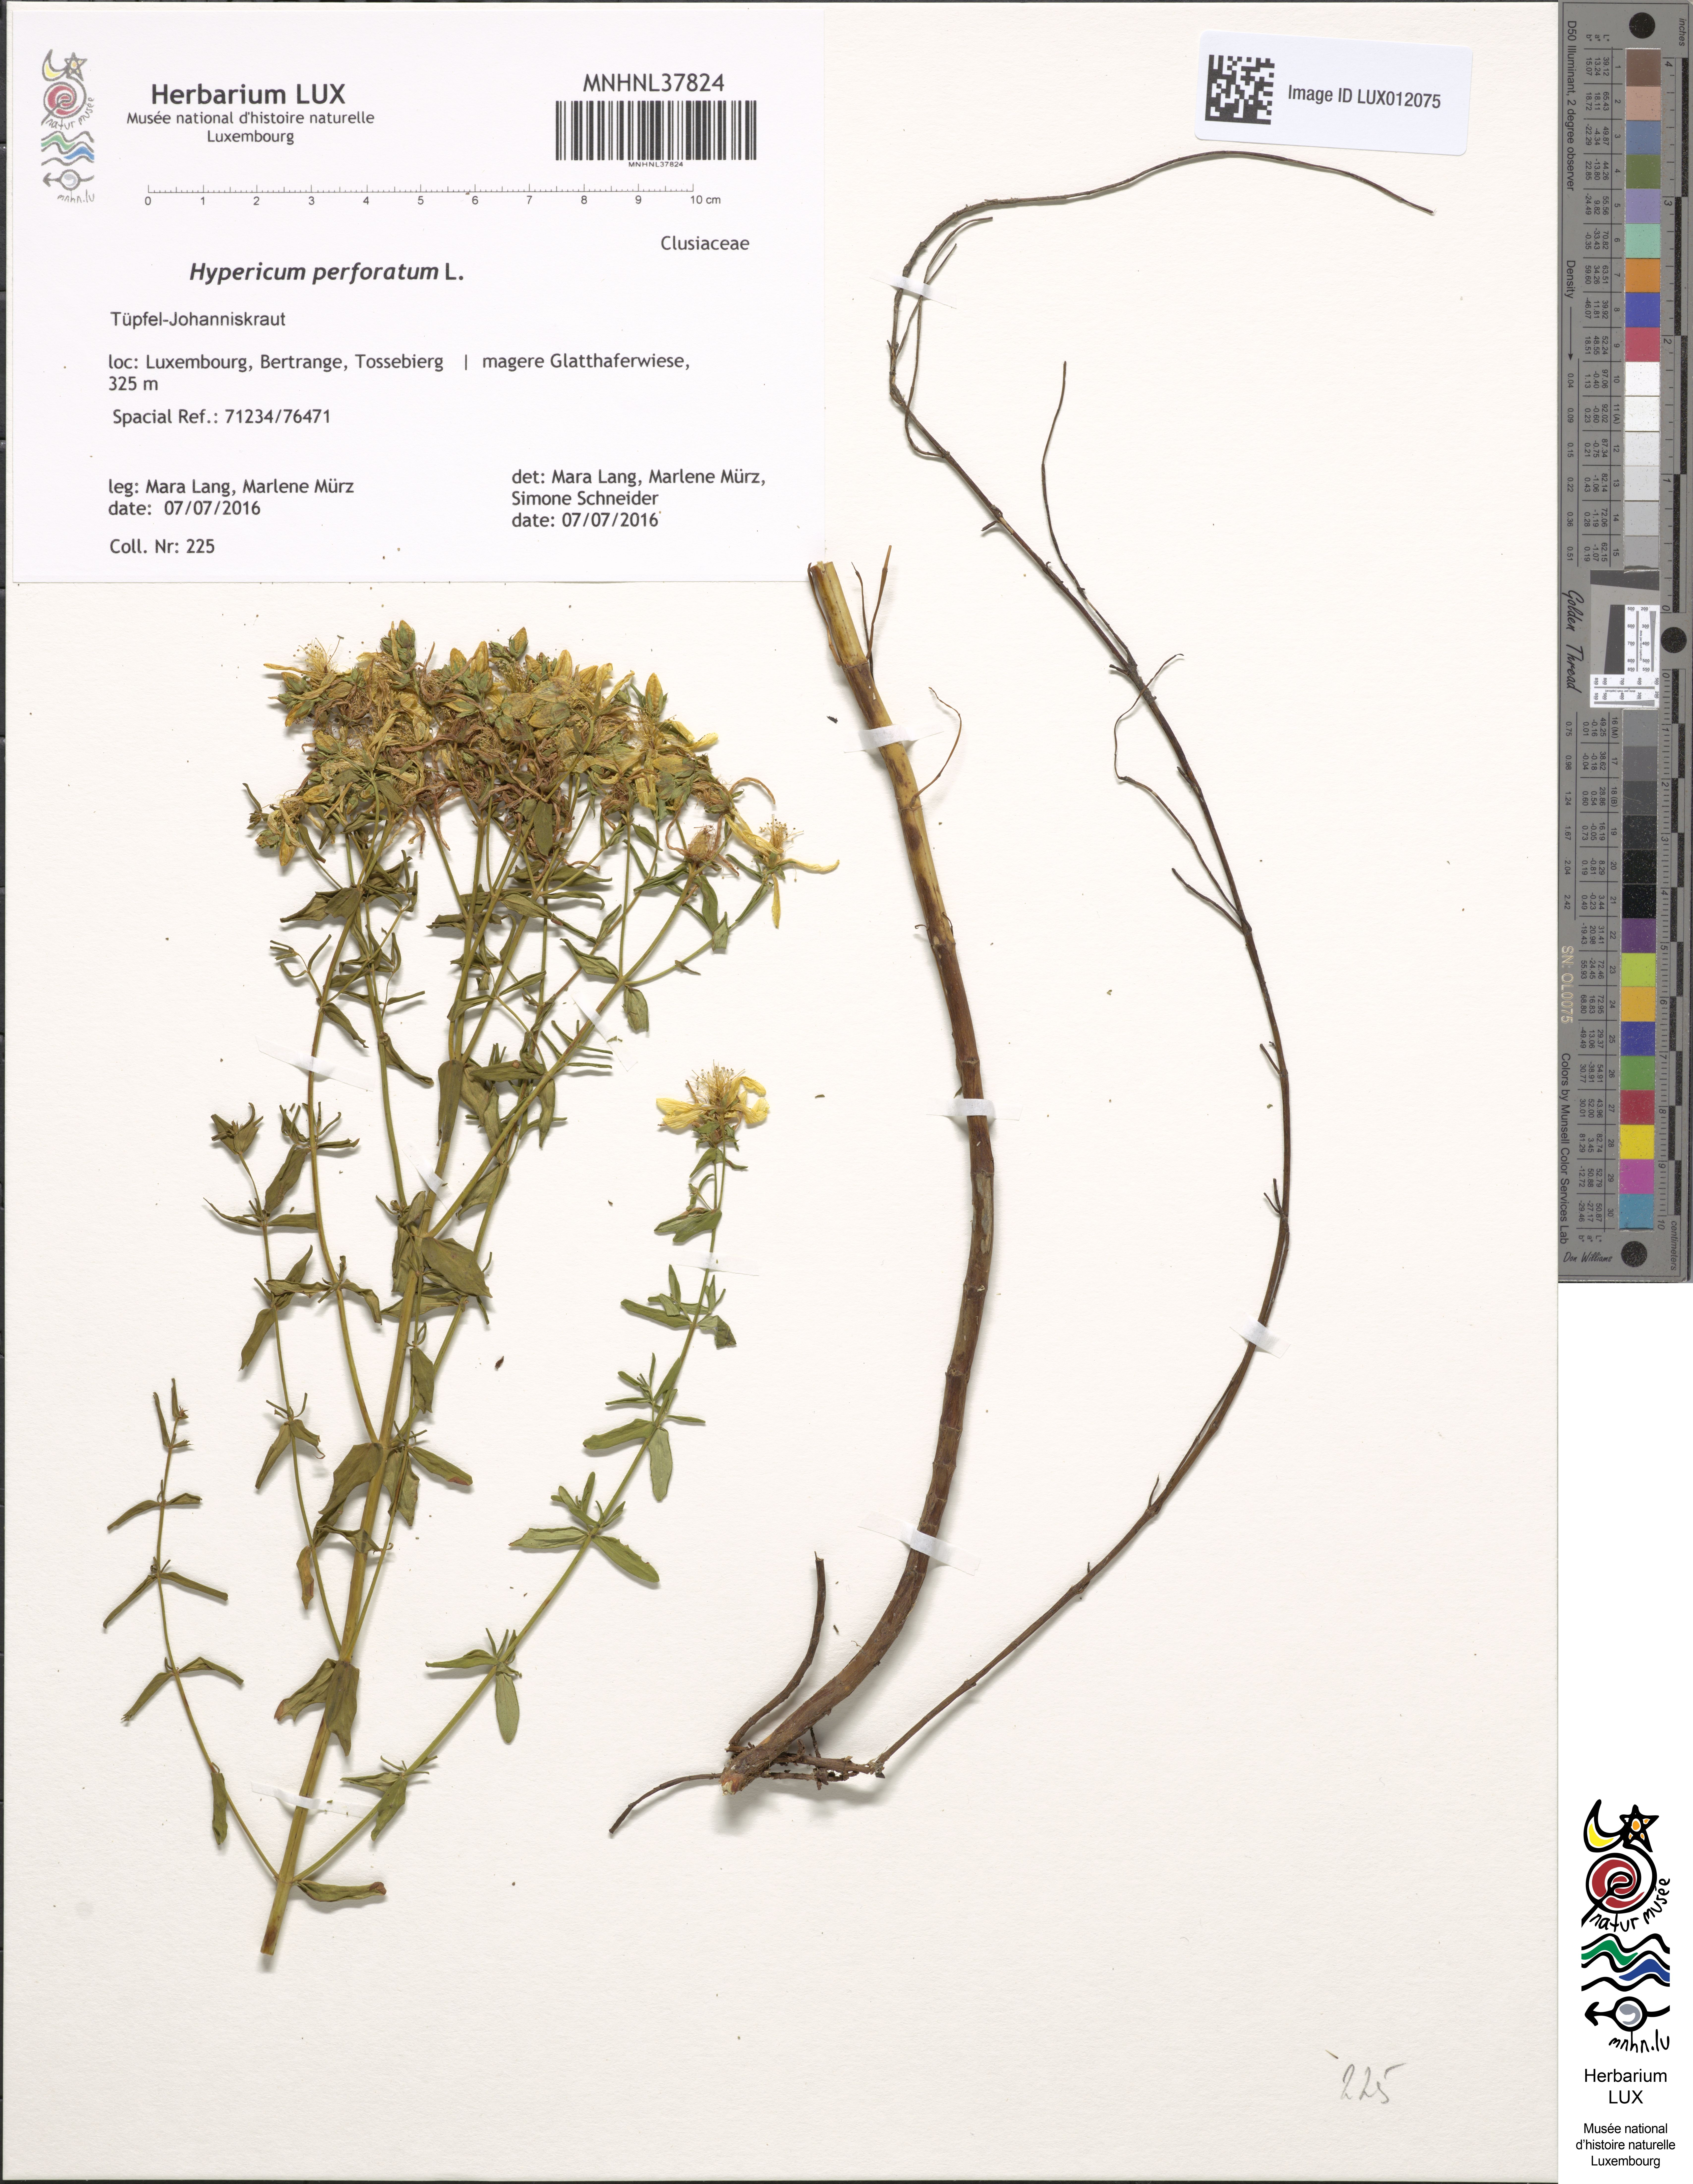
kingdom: Plantae
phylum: Tracheophyta
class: Magnoliopsida
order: Malpighiales
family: Hypericaceae
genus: Hypericum
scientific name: Hypericum perforatum
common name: Common st. johnswort
